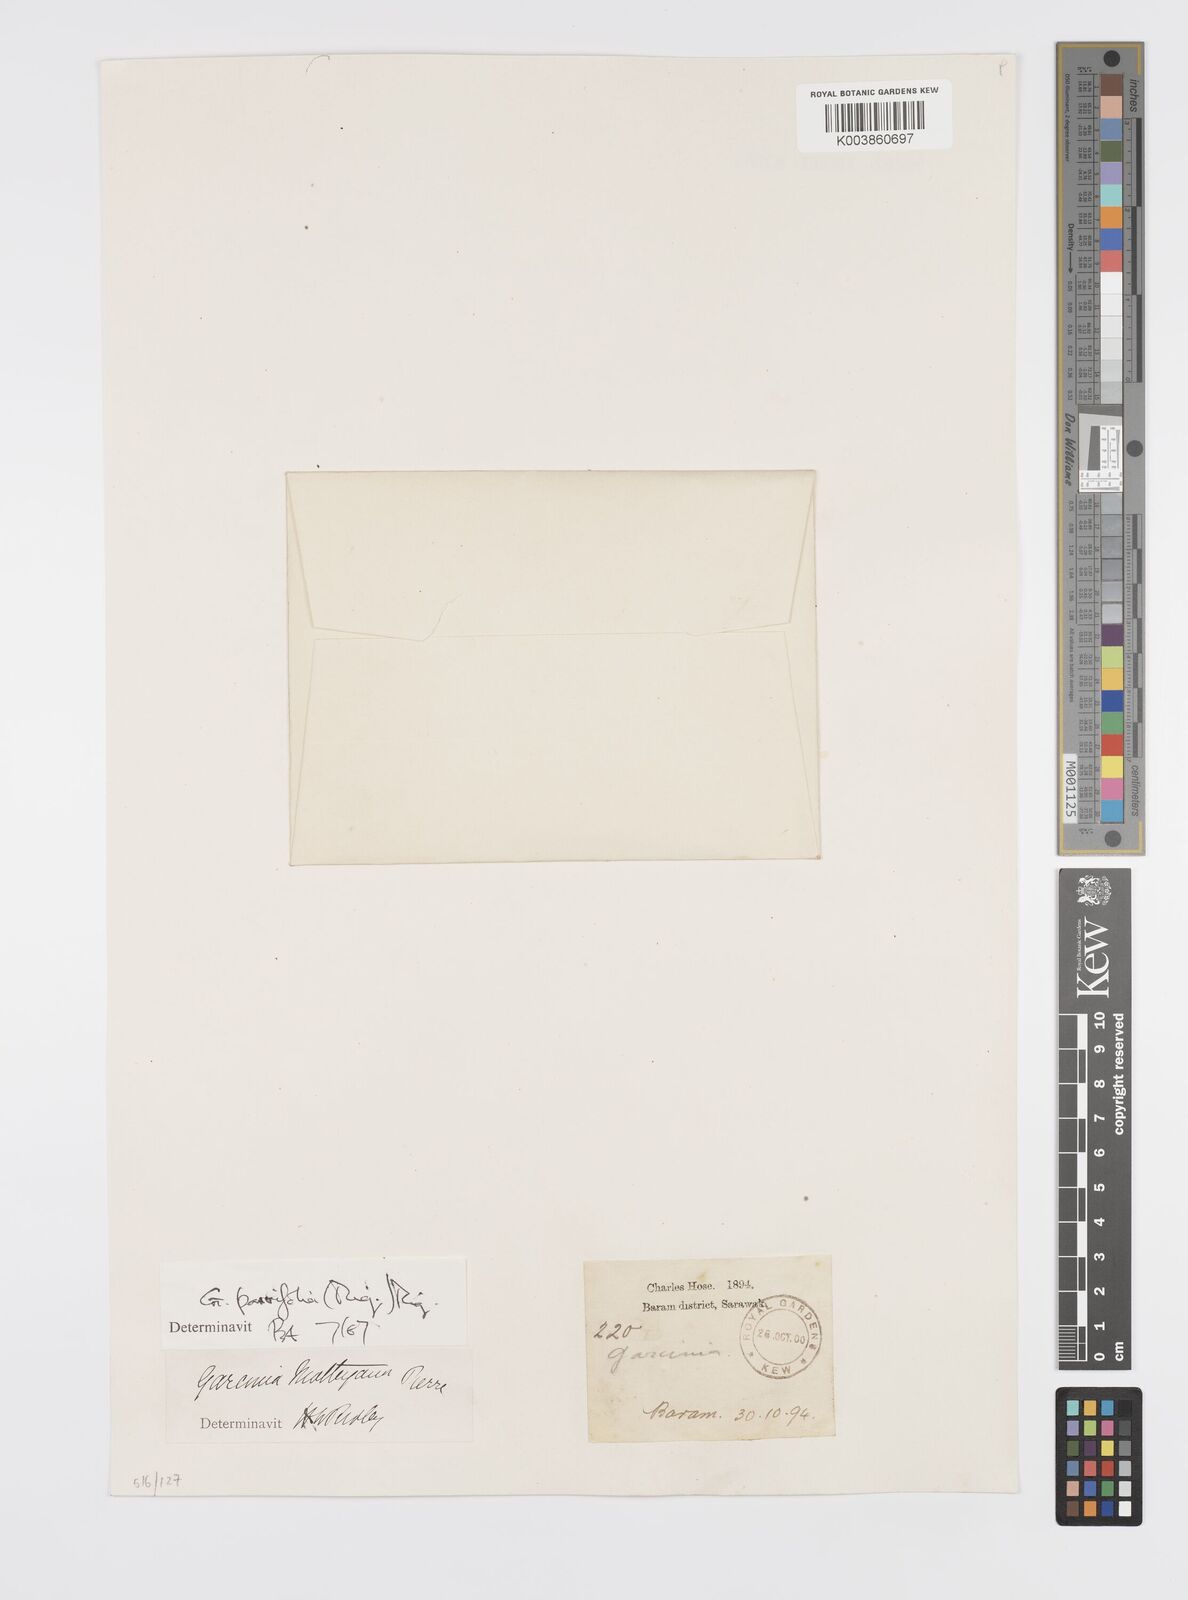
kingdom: Plantae
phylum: Tracheophyta
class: Magnoliopsida
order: Malpighiales
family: Clusiaceae
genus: Garcinia
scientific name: Garcinia parvifolia
